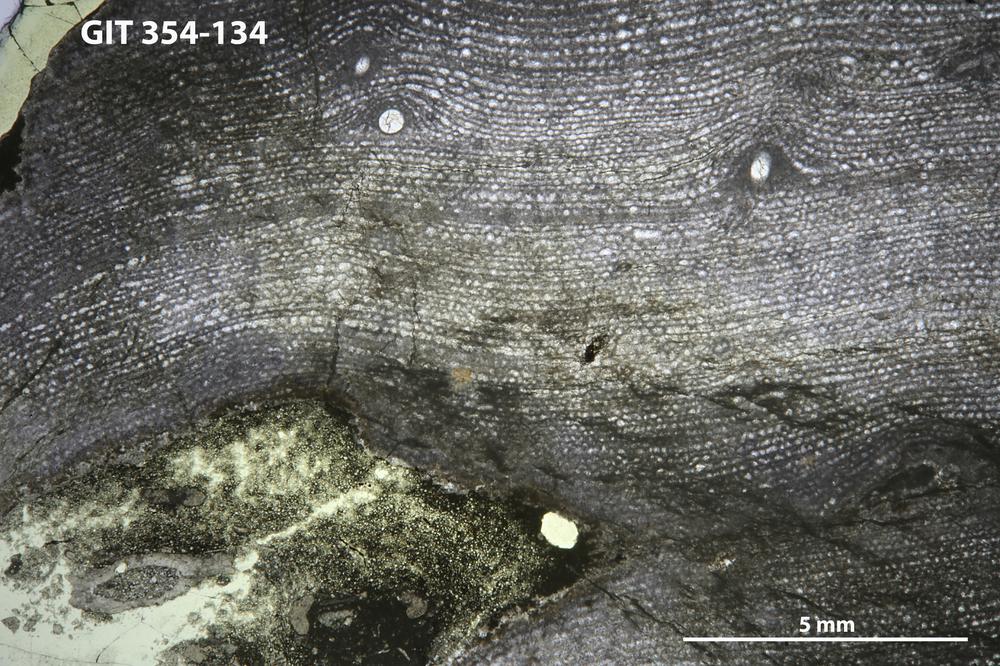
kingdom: Animalia
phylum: Porifera
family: Clathrodictyidae
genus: Clathrodictyon
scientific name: Clathrodictyon boreale
